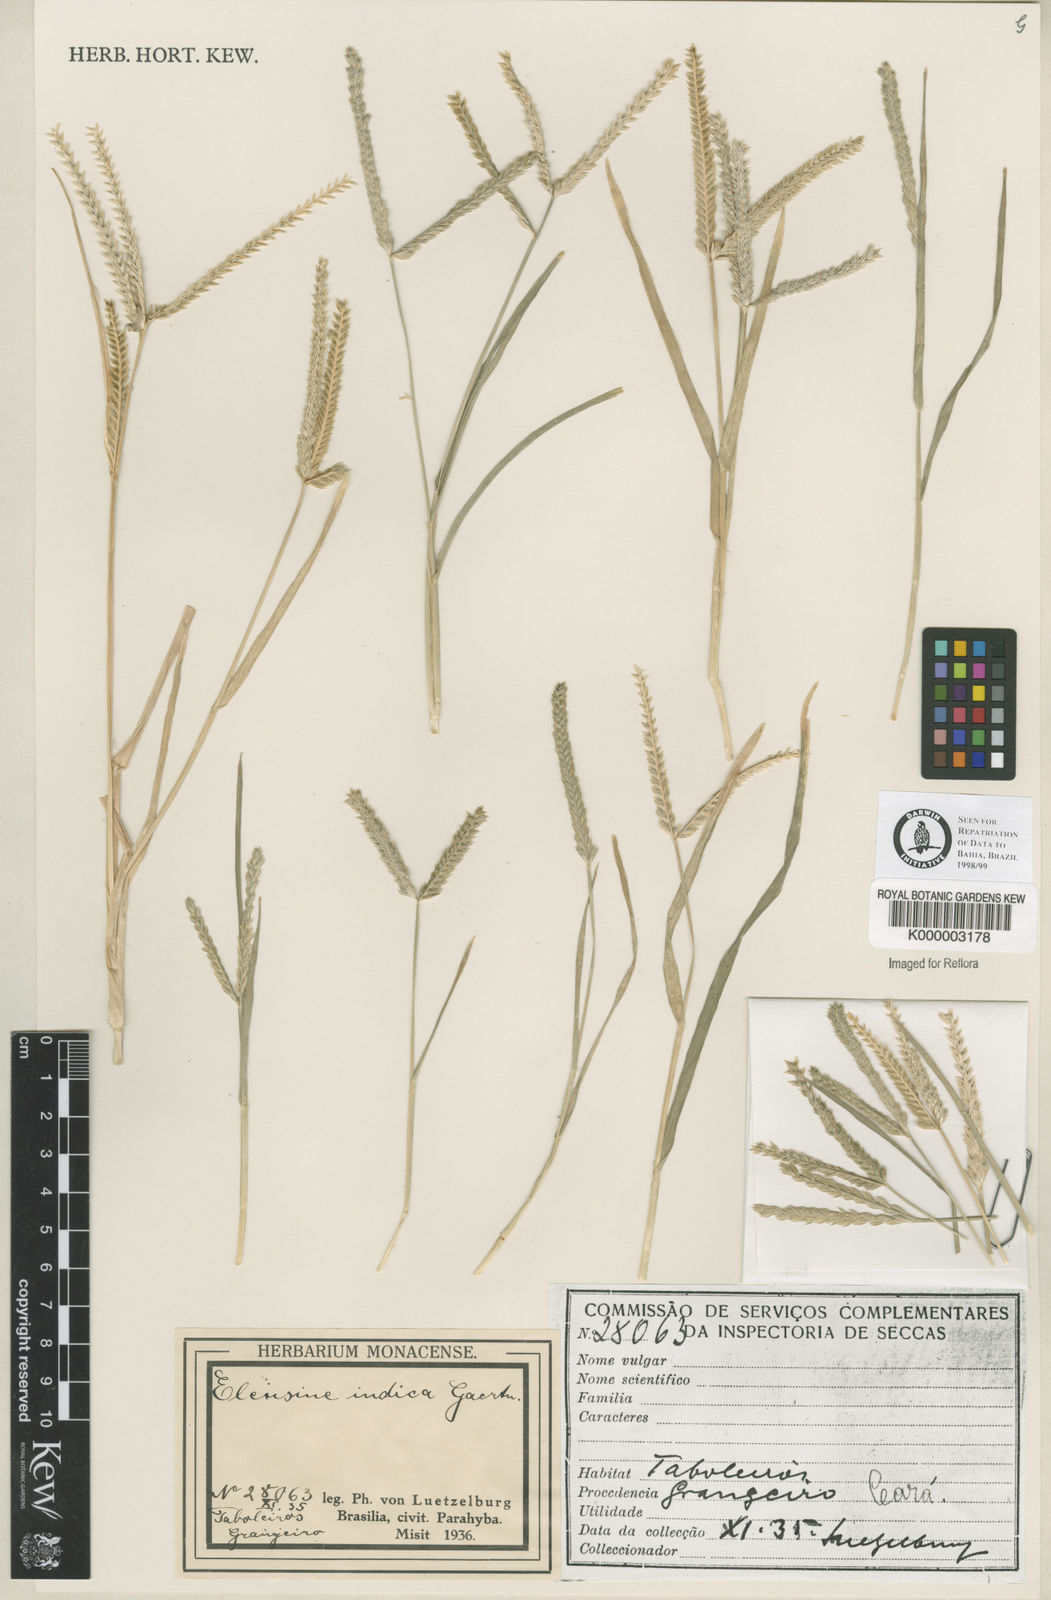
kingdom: Plantae
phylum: Tracheophyta
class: Liliopsida
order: Poales
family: Poaceae
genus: Eleusine
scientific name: Eleusine indica
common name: Yard-grass
